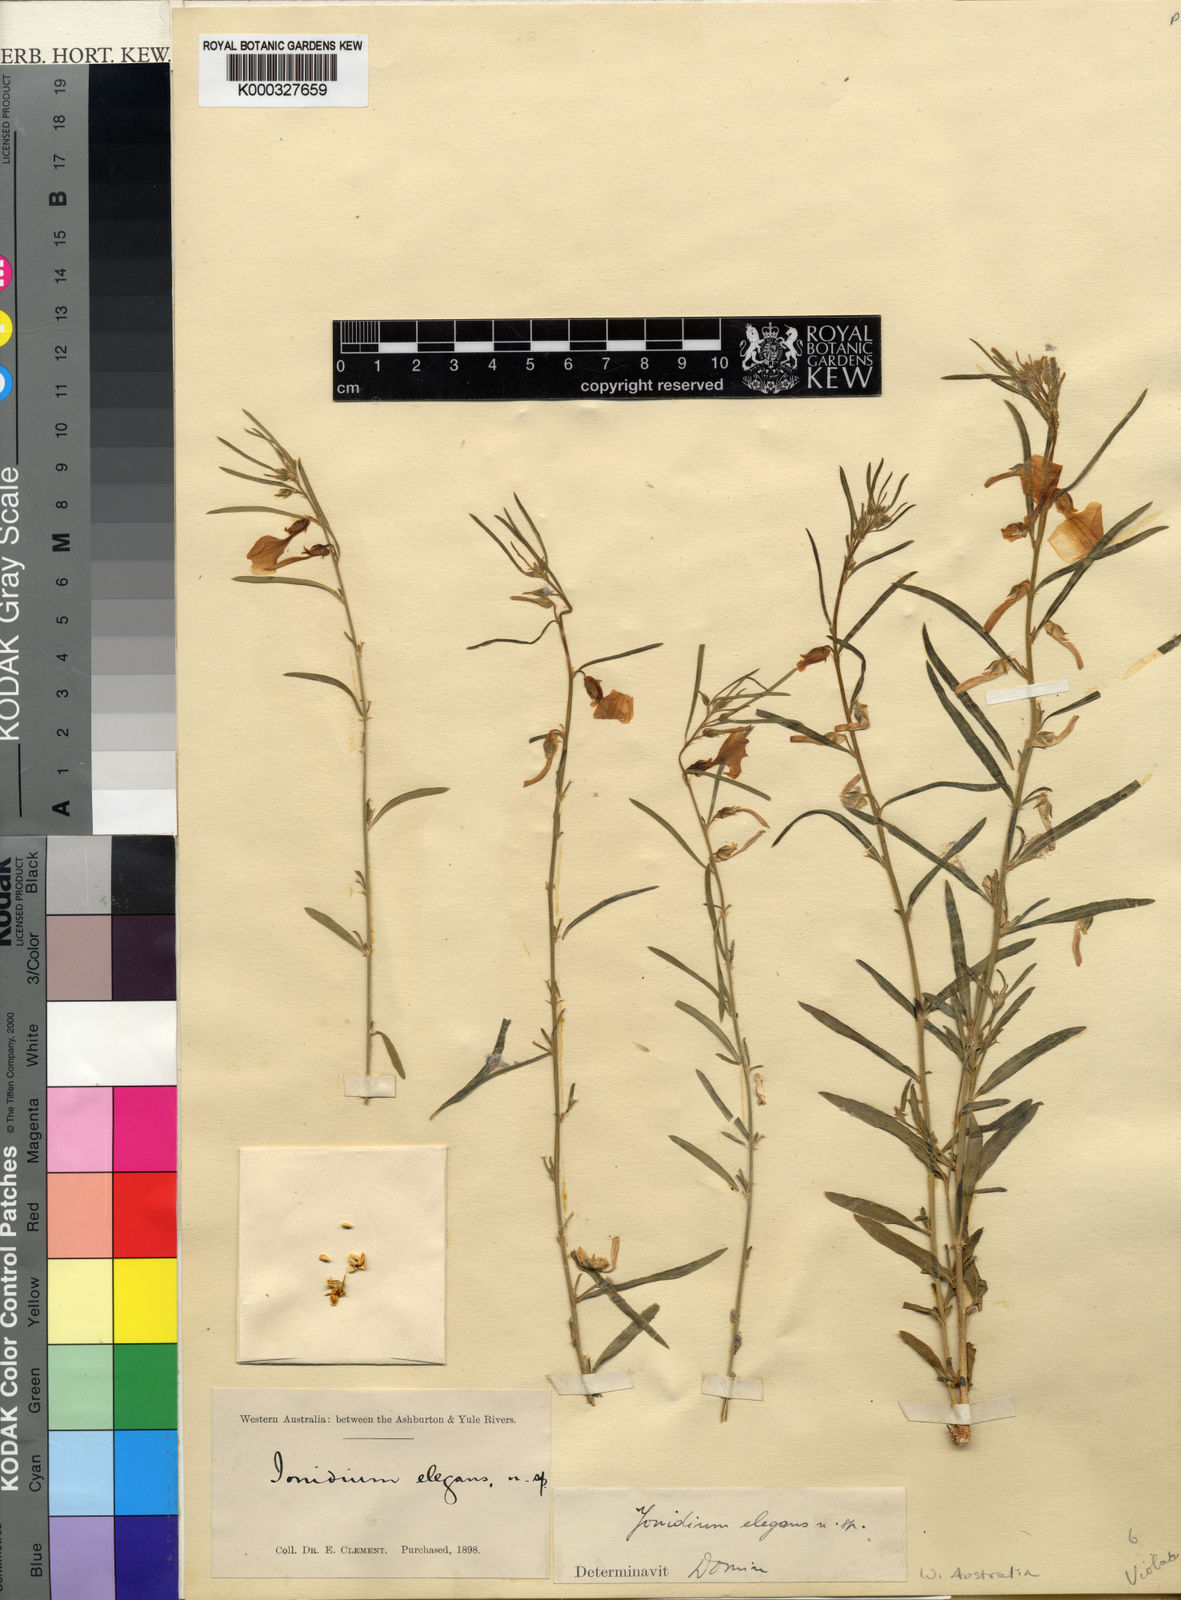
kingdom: Plantae
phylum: Tracheophyta
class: Magnoliopsida
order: Malpighiales
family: Violaceae
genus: Pigea
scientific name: Pigea aurantiaca
